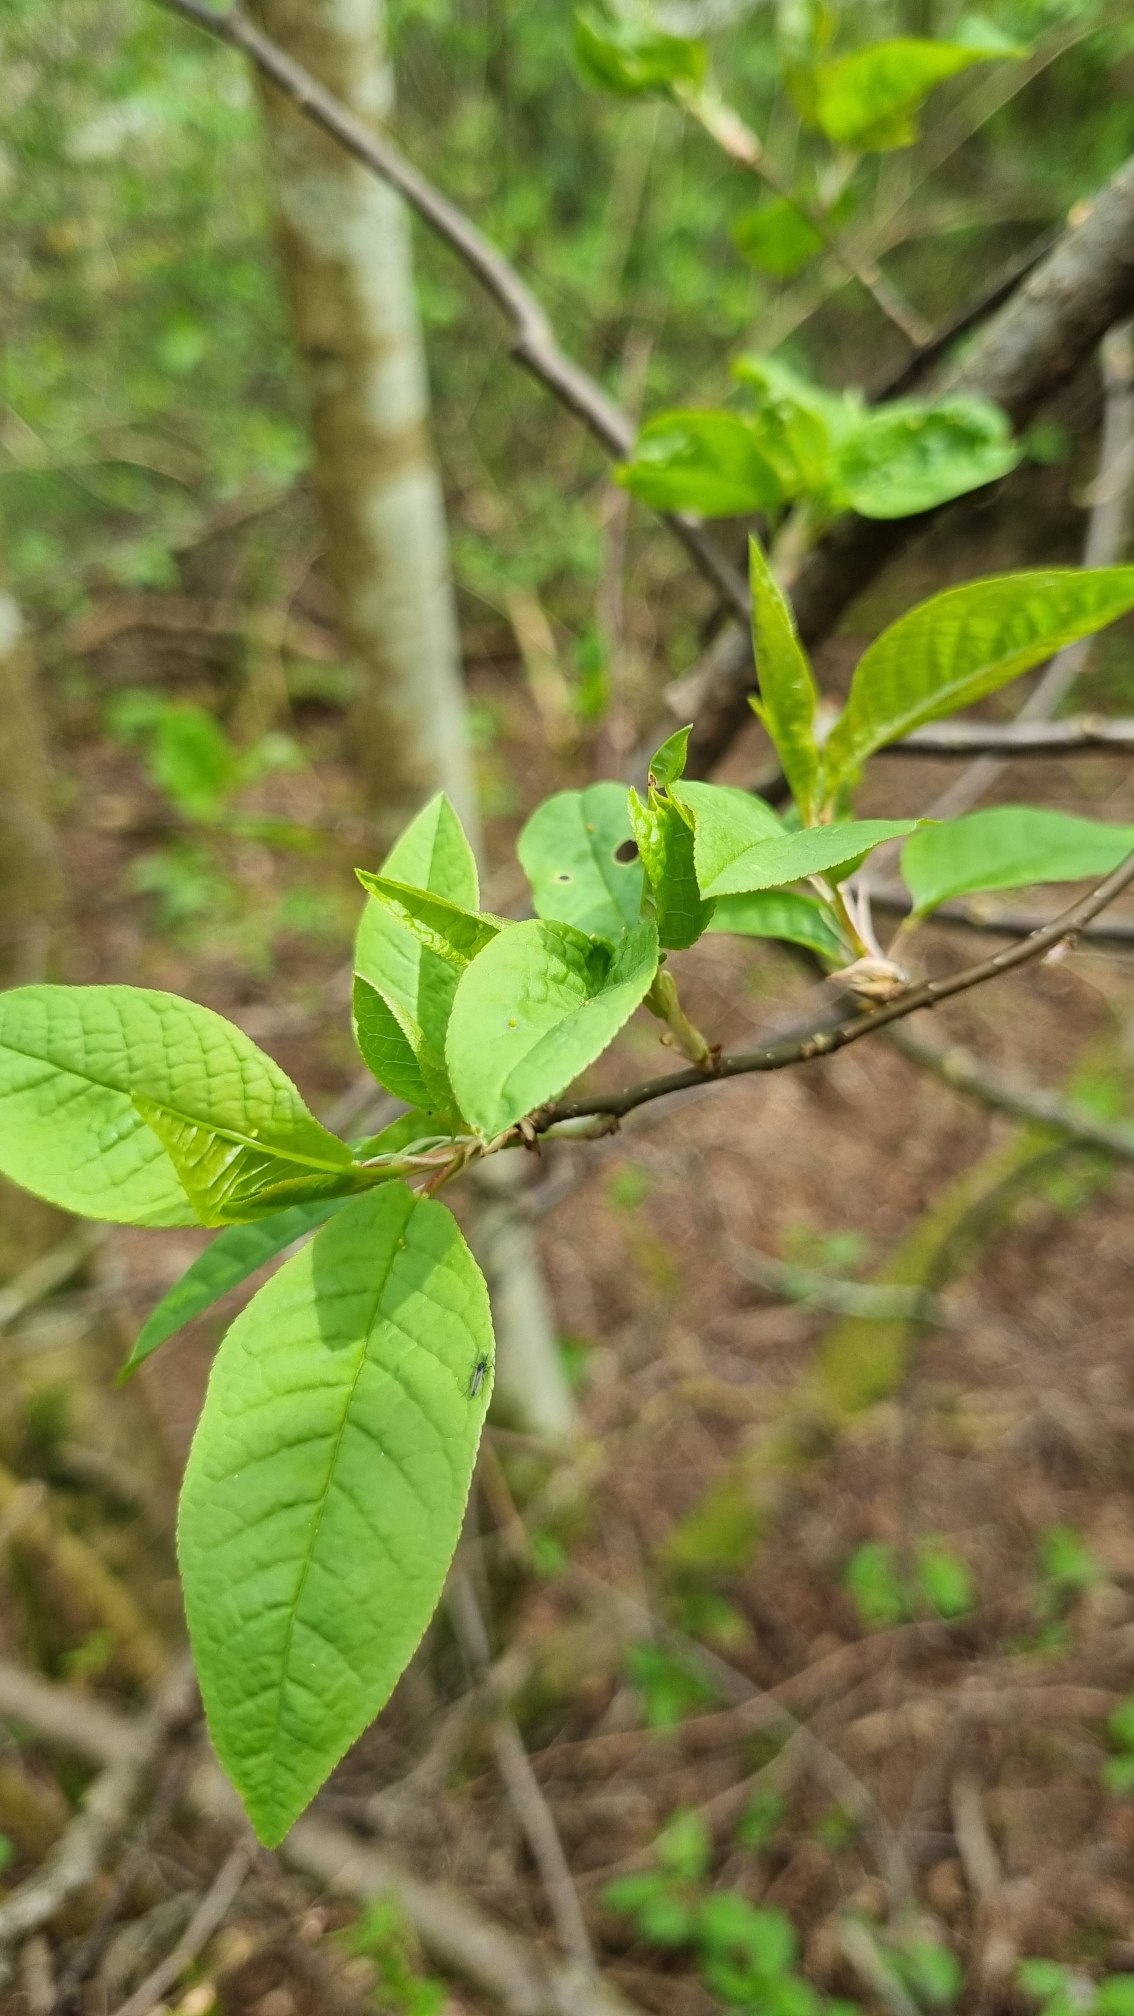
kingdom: Plantae
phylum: Tracheophyta
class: Magnoliopsida
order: Rosales
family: Rosaceae
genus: Prunus
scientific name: Prunus padus
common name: Almindelig hæg
